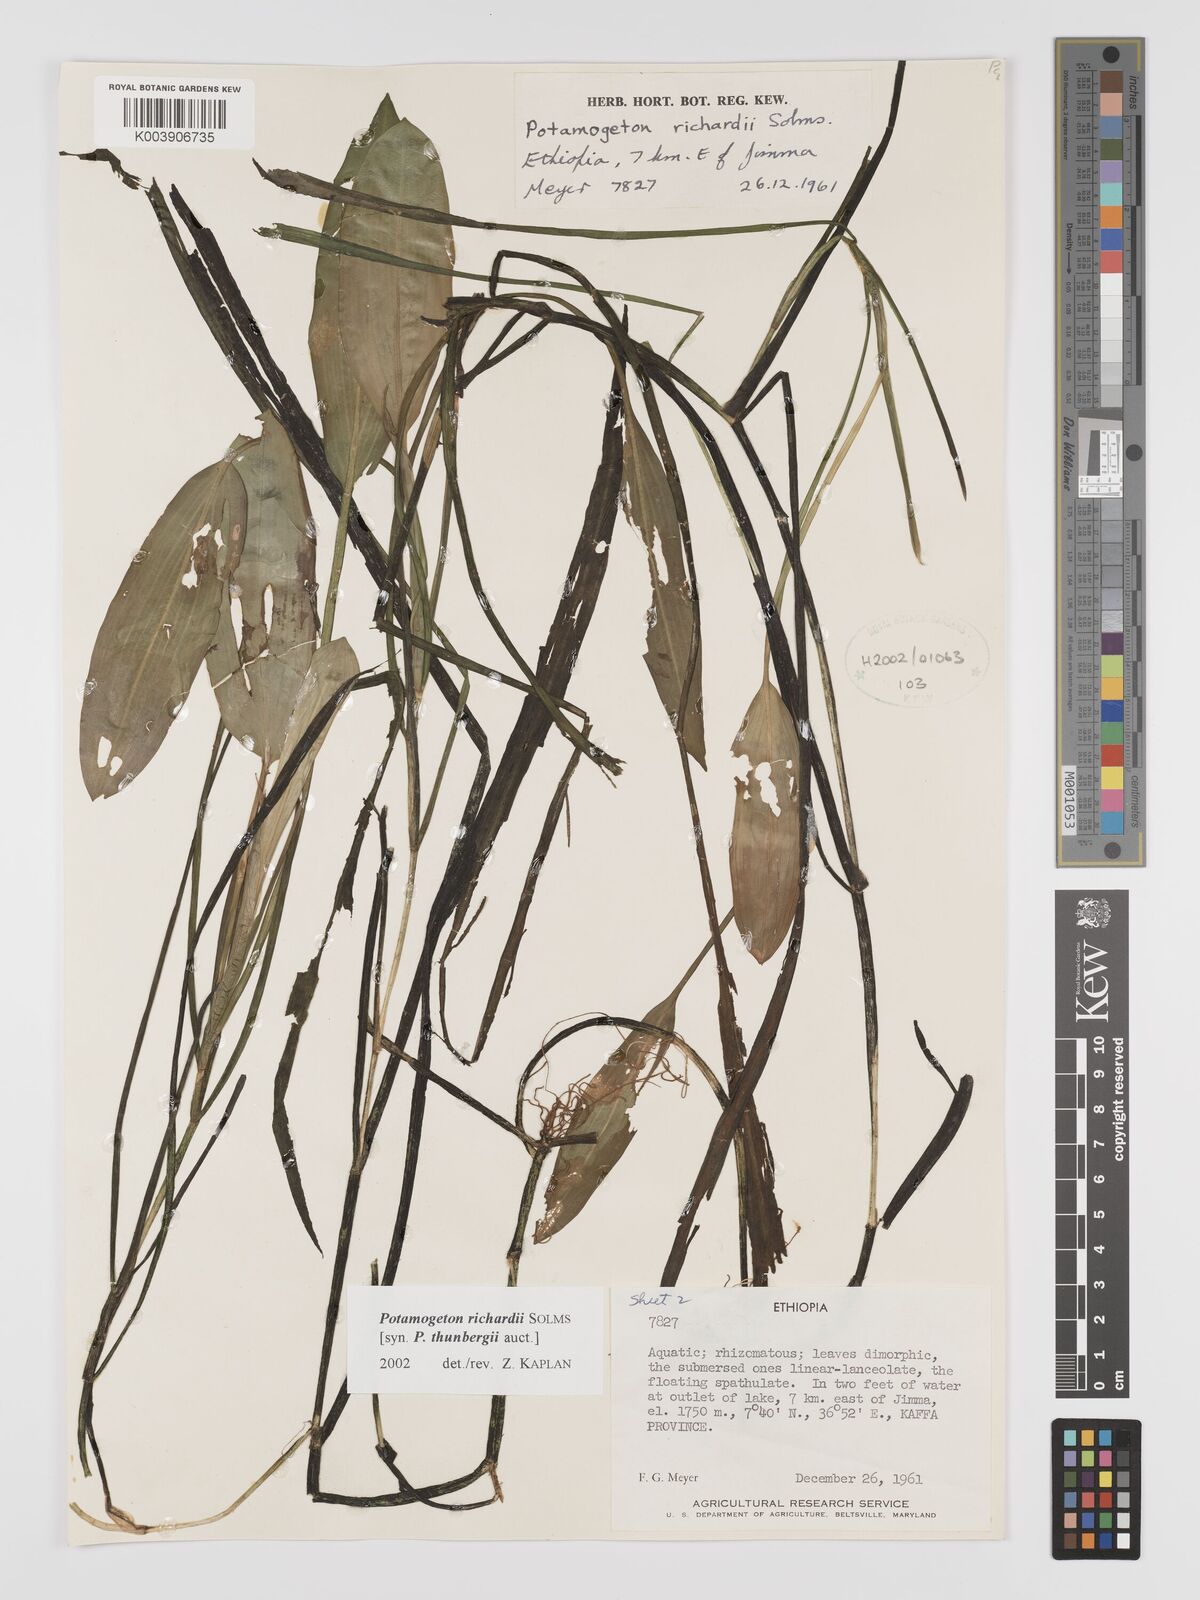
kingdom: Plantae
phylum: Tracheophyta
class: Liliopsida
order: Alismatales
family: Potamogetonaceae
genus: Potamogeton
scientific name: Potamogeton richardii
